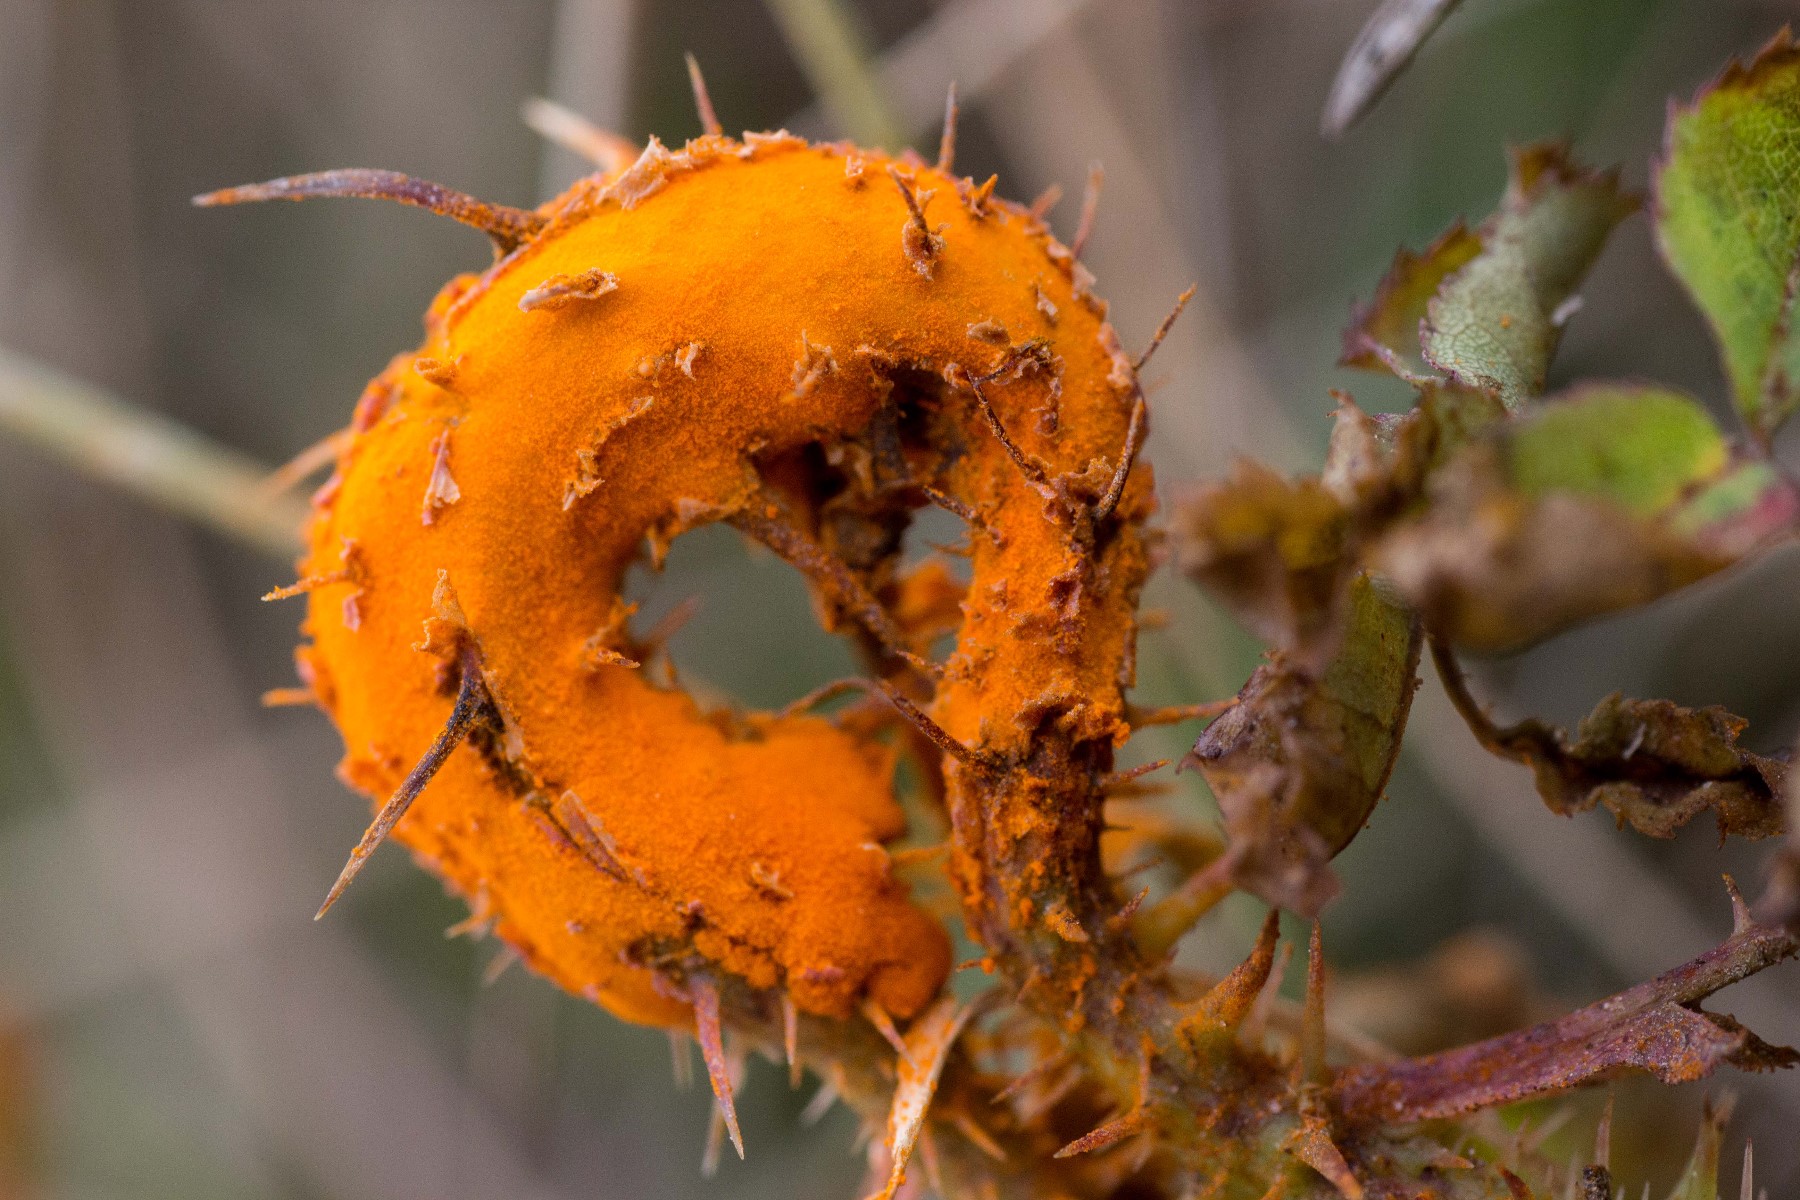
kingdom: Fungi
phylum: Basidiomycota
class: Pucciniomycetes
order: Pucciniales
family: Phragmidiaceae
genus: Phragmidium
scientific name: Phragmidium rosae-pimpinellifoliae
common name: Burnet rose rust
